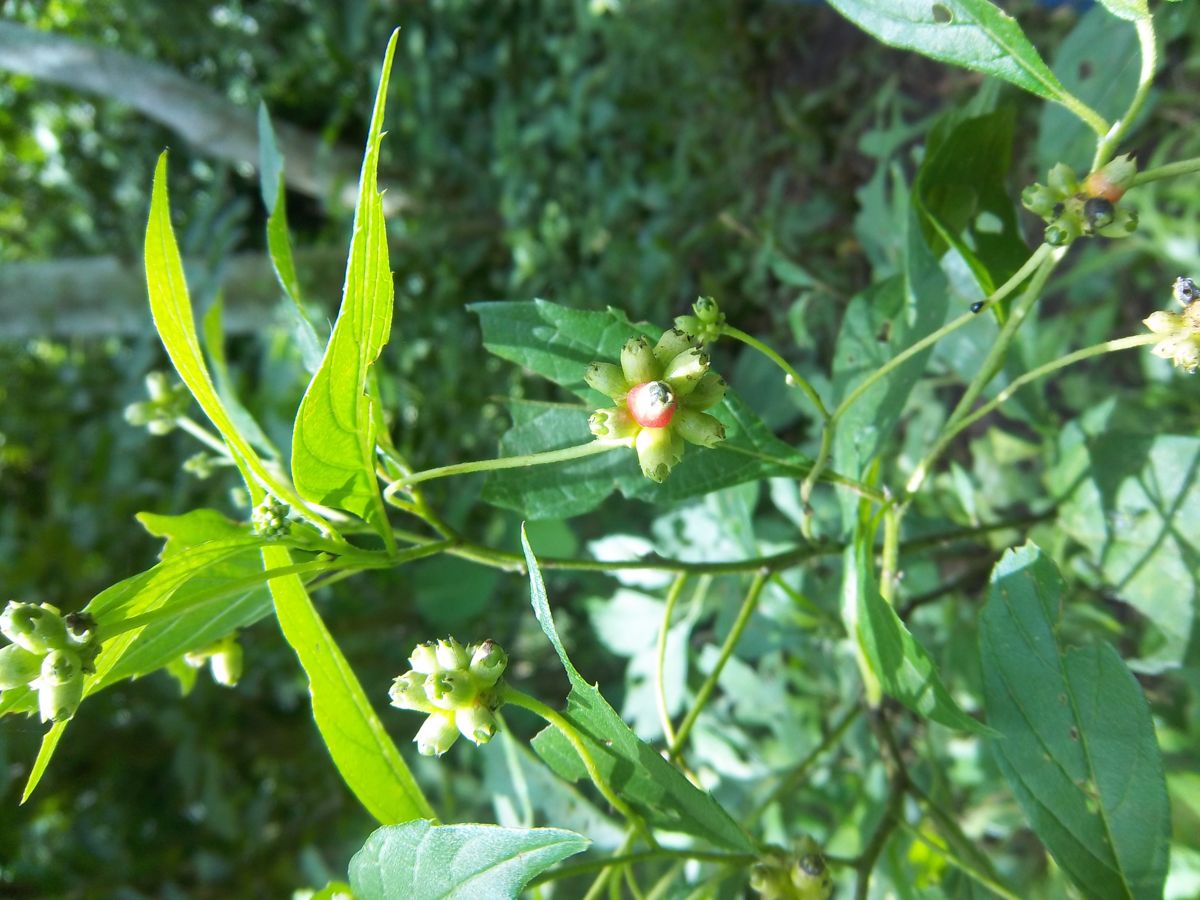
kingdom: Plantae
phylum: Tracheophyta
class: Magnoliopsida
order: Boraginales
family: Cordiaceae
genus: Varronia
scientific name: Varronia inermis
